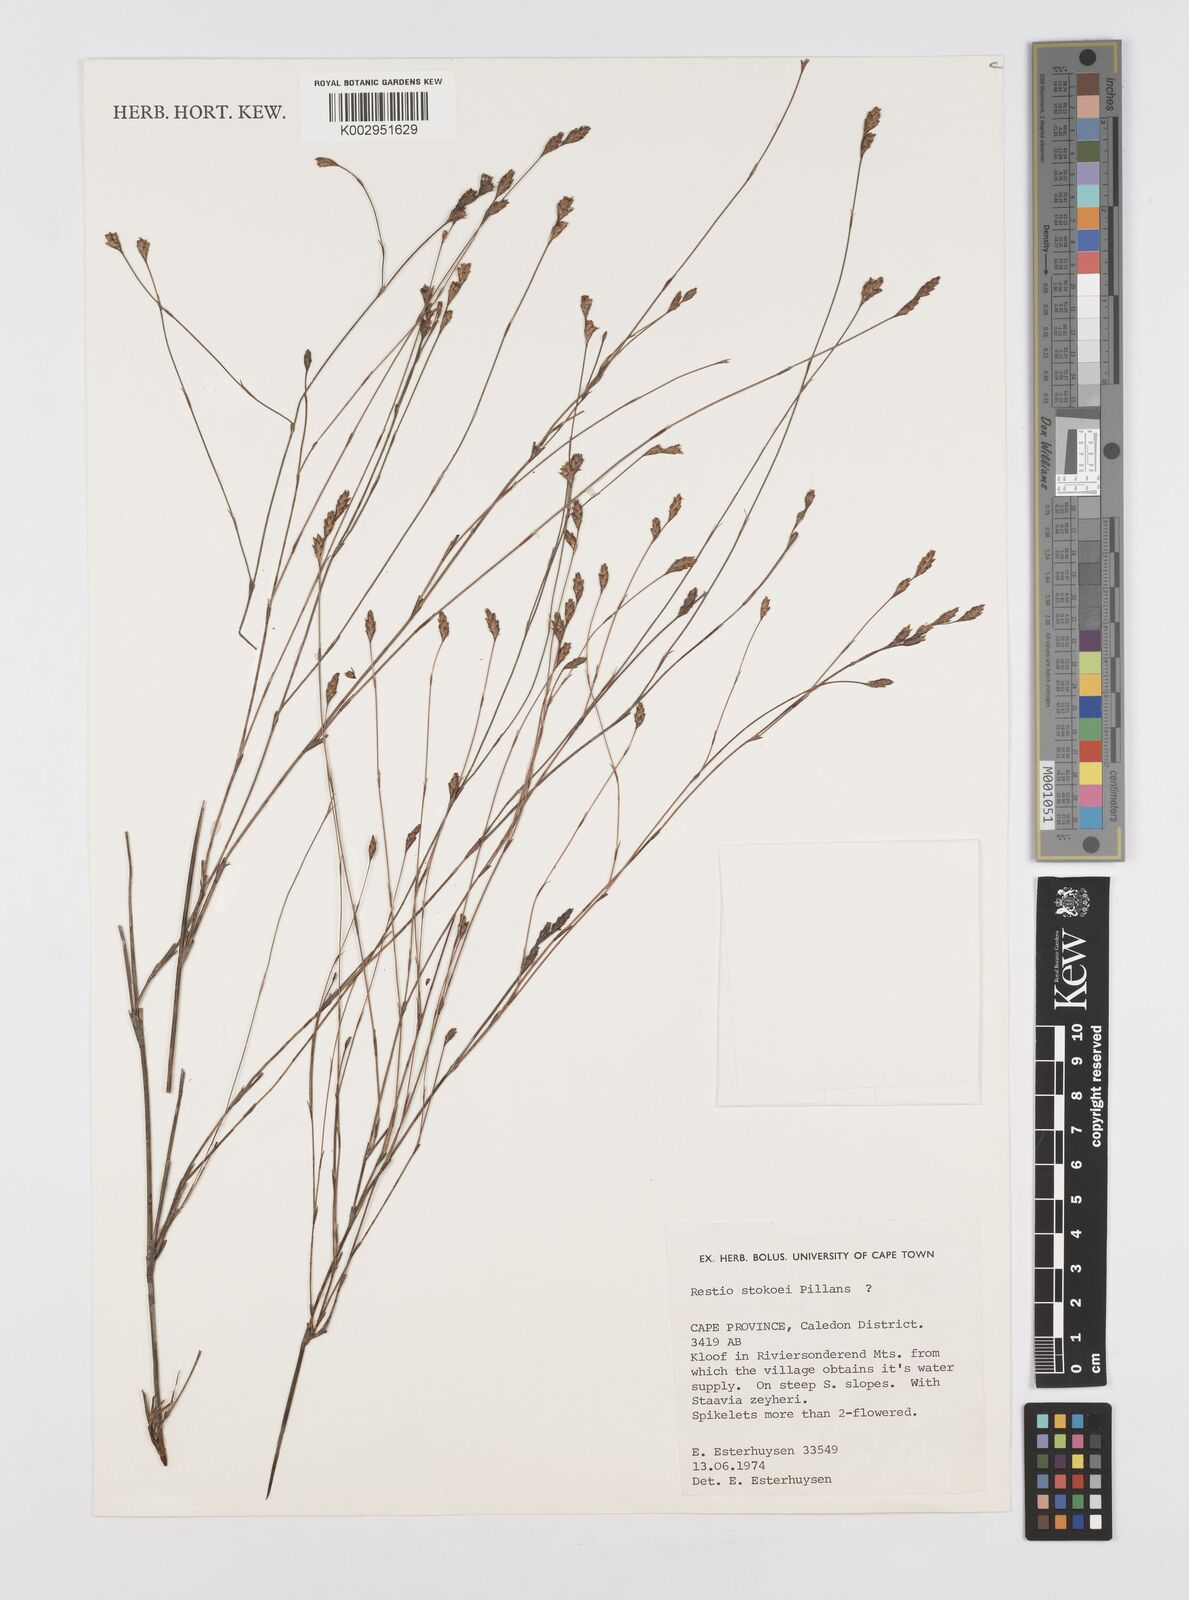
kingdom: Plantae
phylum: Tracheophyta
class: Liliopsida
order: Poales
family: Restionaceae
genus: Restio
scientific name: Restio stokoei
